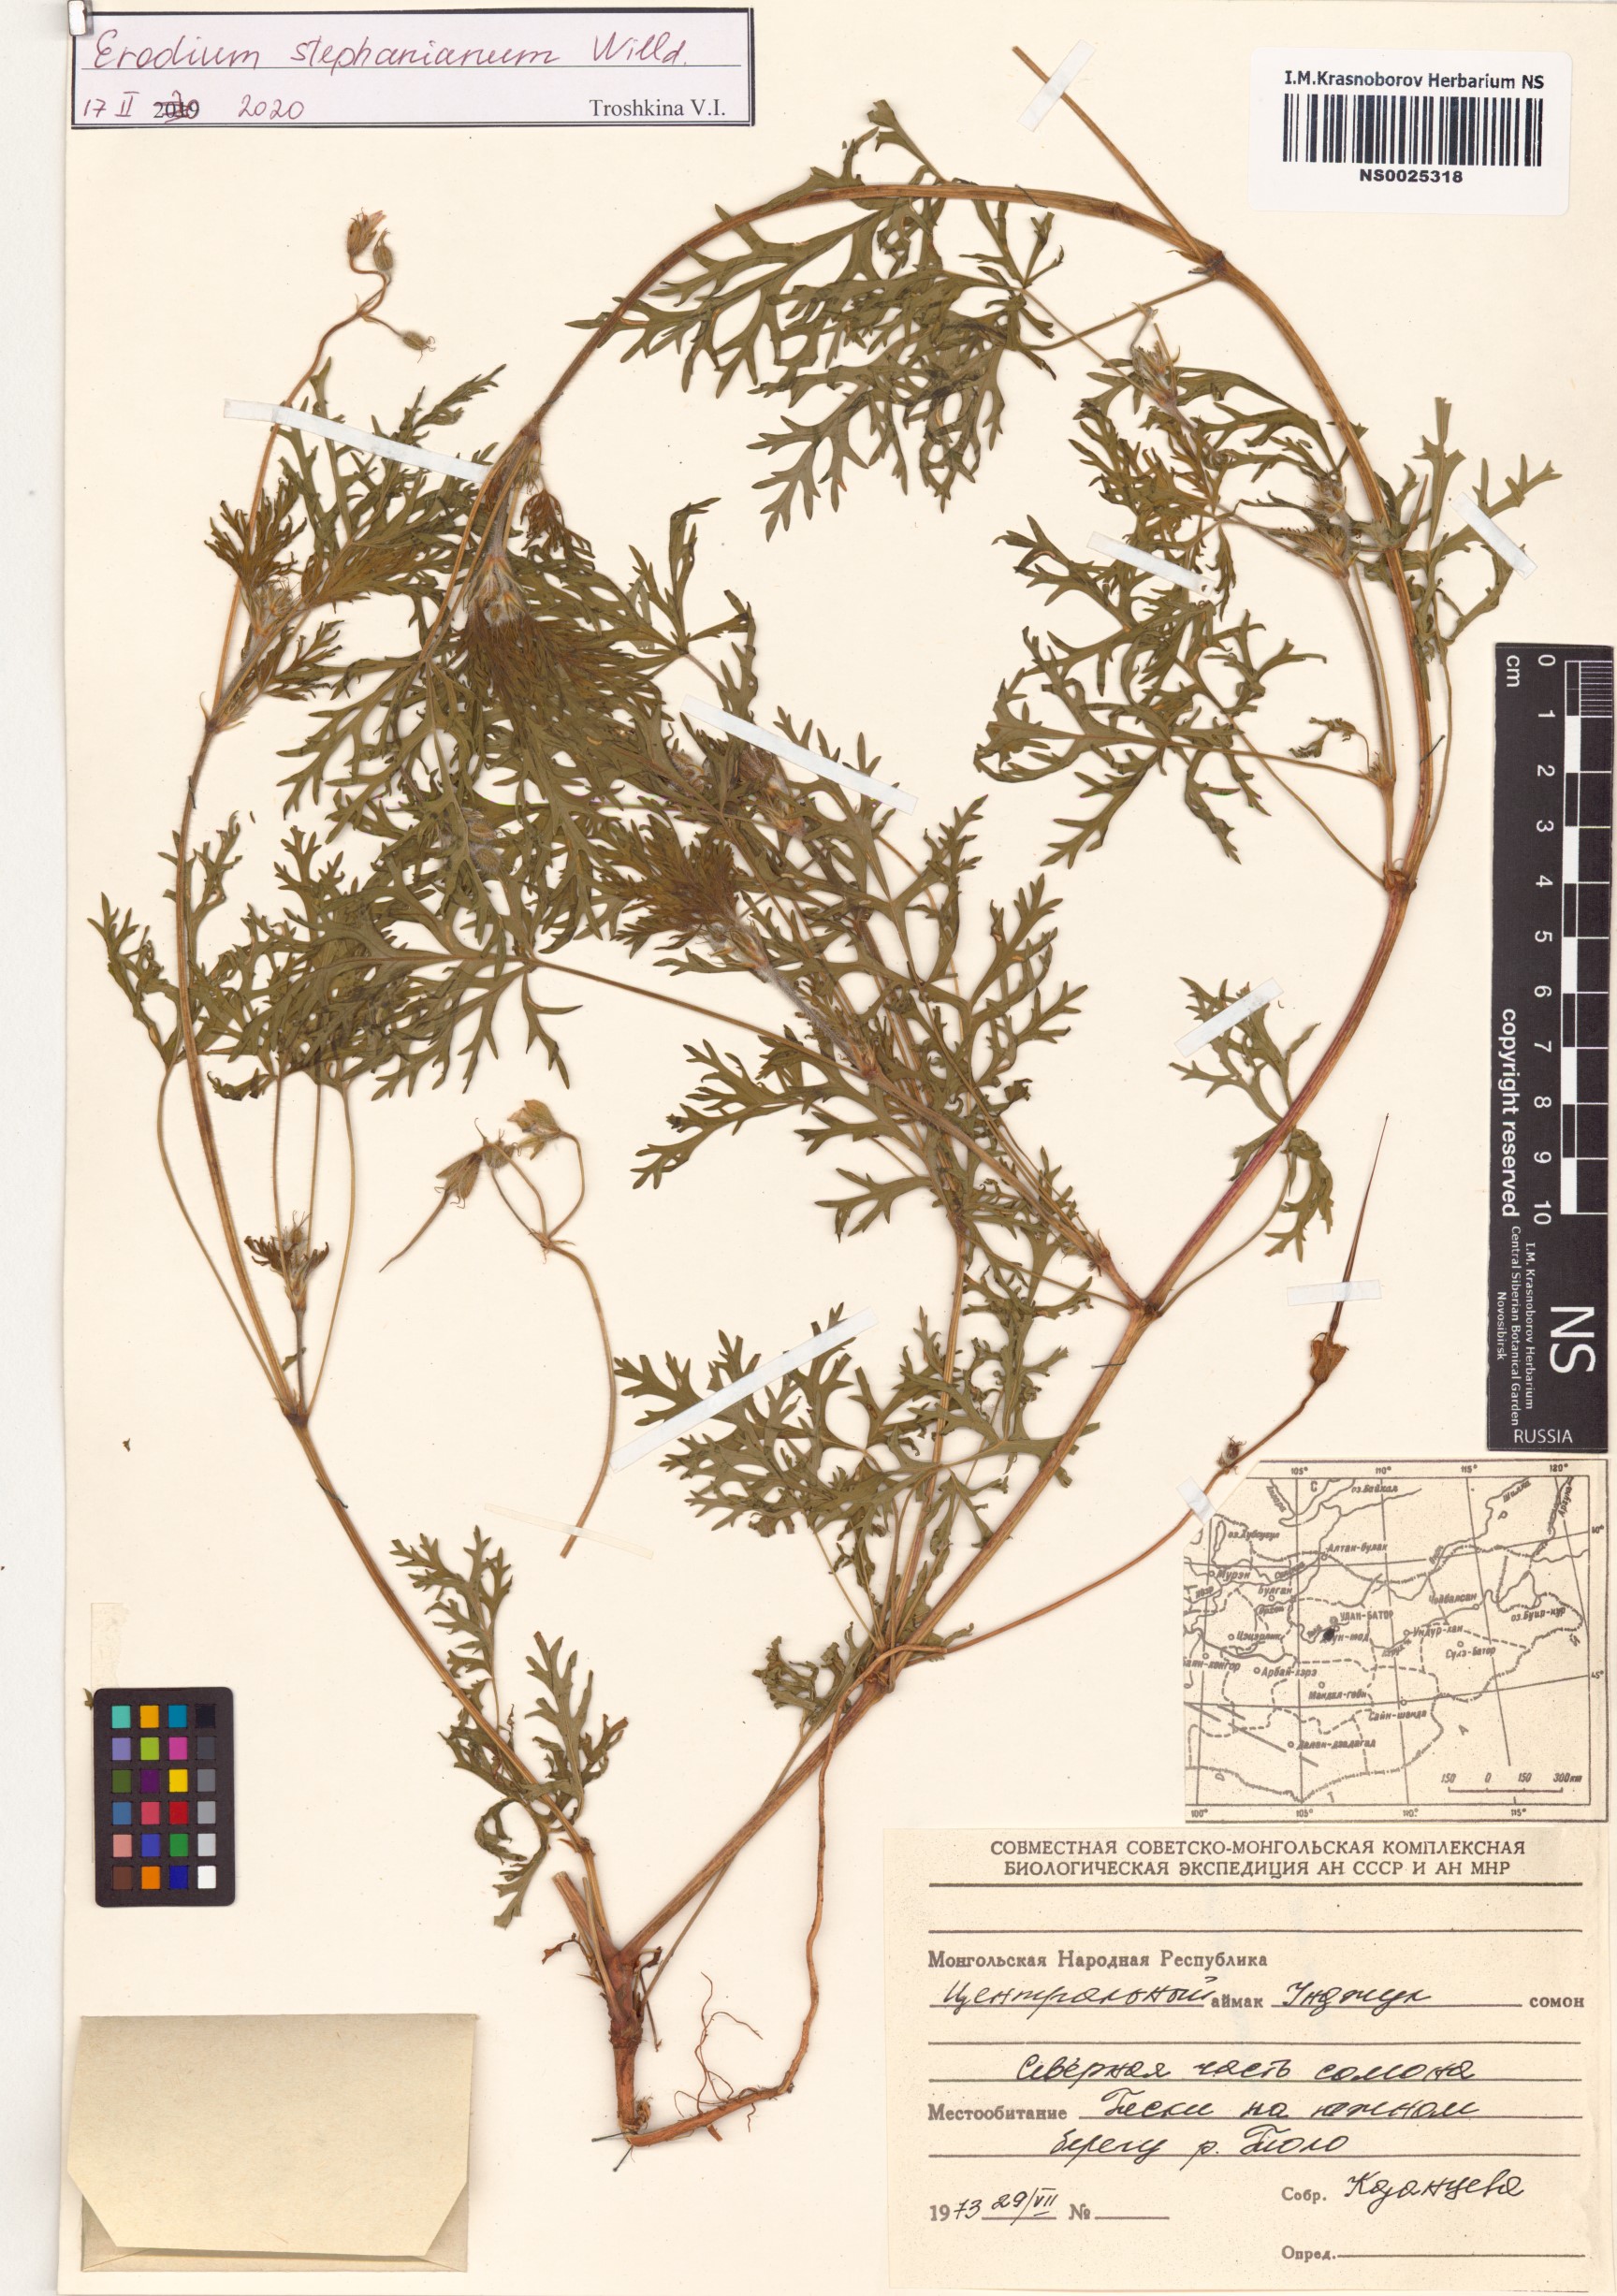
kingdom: Plantae
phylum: Tracheophyta
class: Magnoliopsida
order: Geraniales
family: Geraniaceae
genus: Erodium
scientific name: Erodium stephanianum
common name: Stephen's stork's bill
